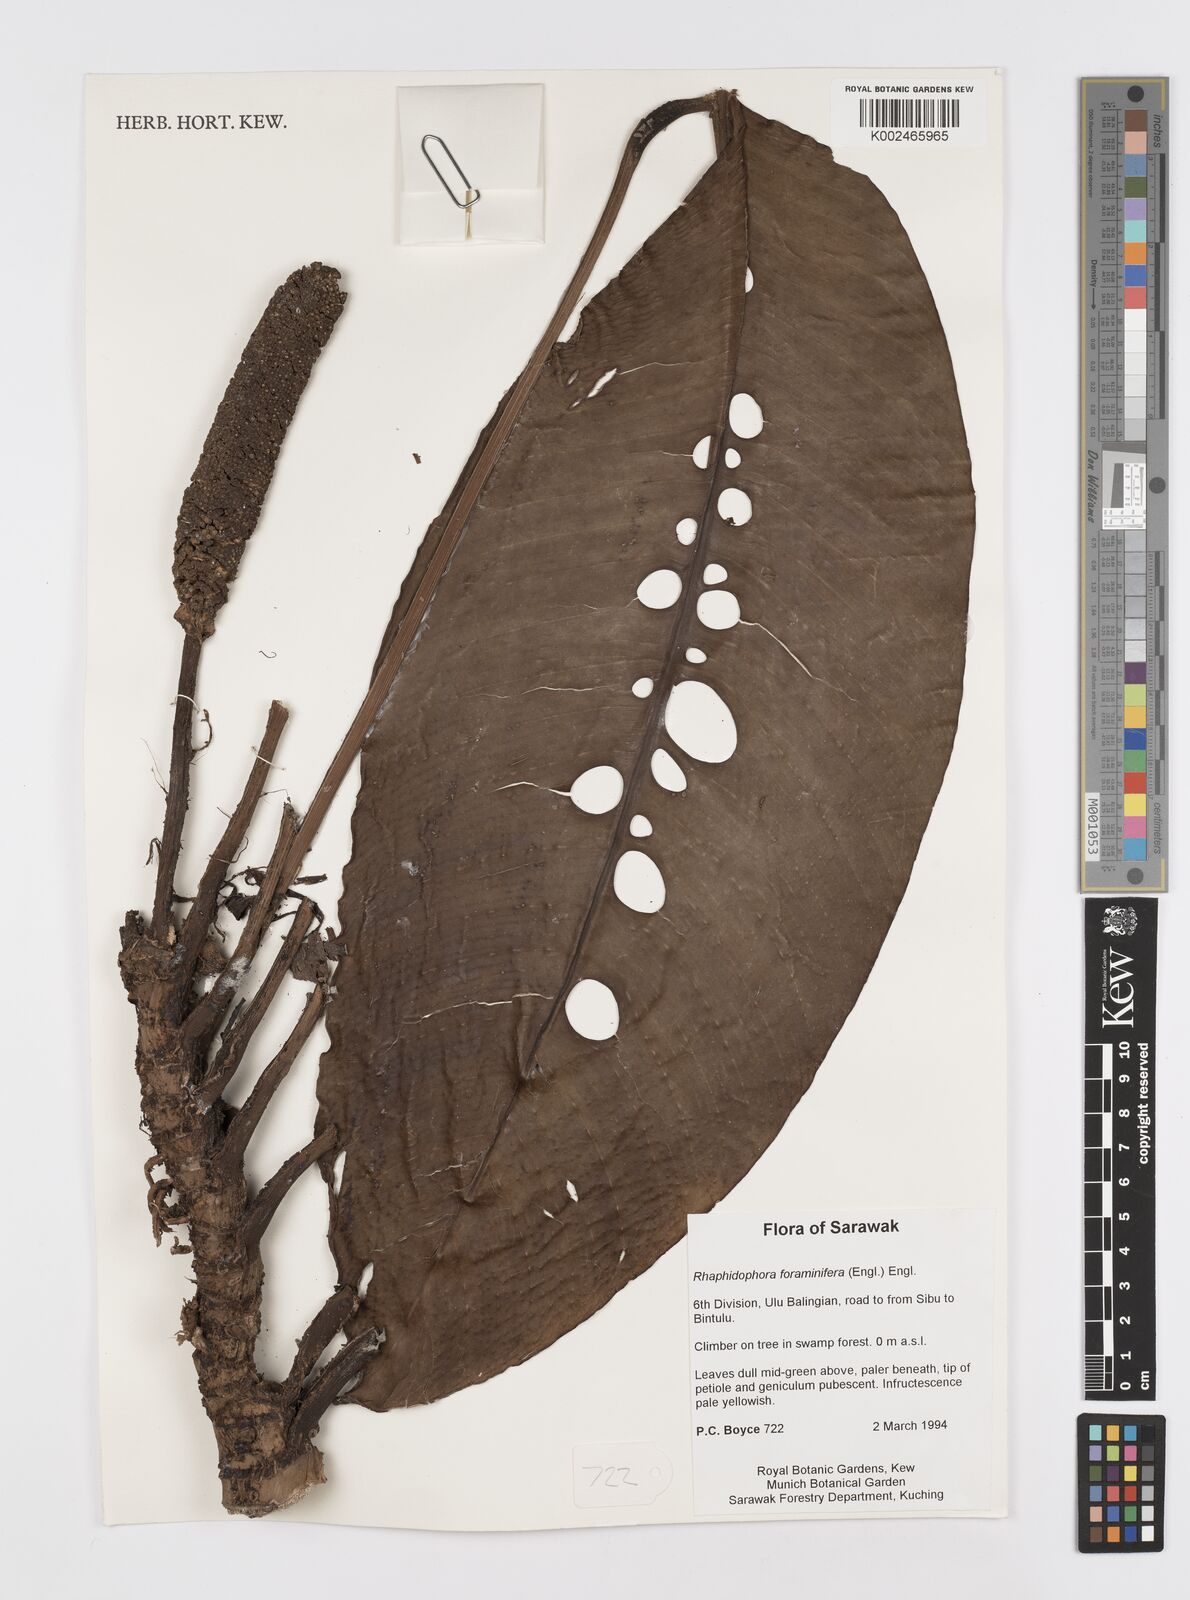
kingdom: Plantae
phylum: Tracheophyta
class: Liliopsida
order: Alismatales
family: Araceae
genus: Rhaphidophora
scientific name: Rhaphidophora foraminifera
